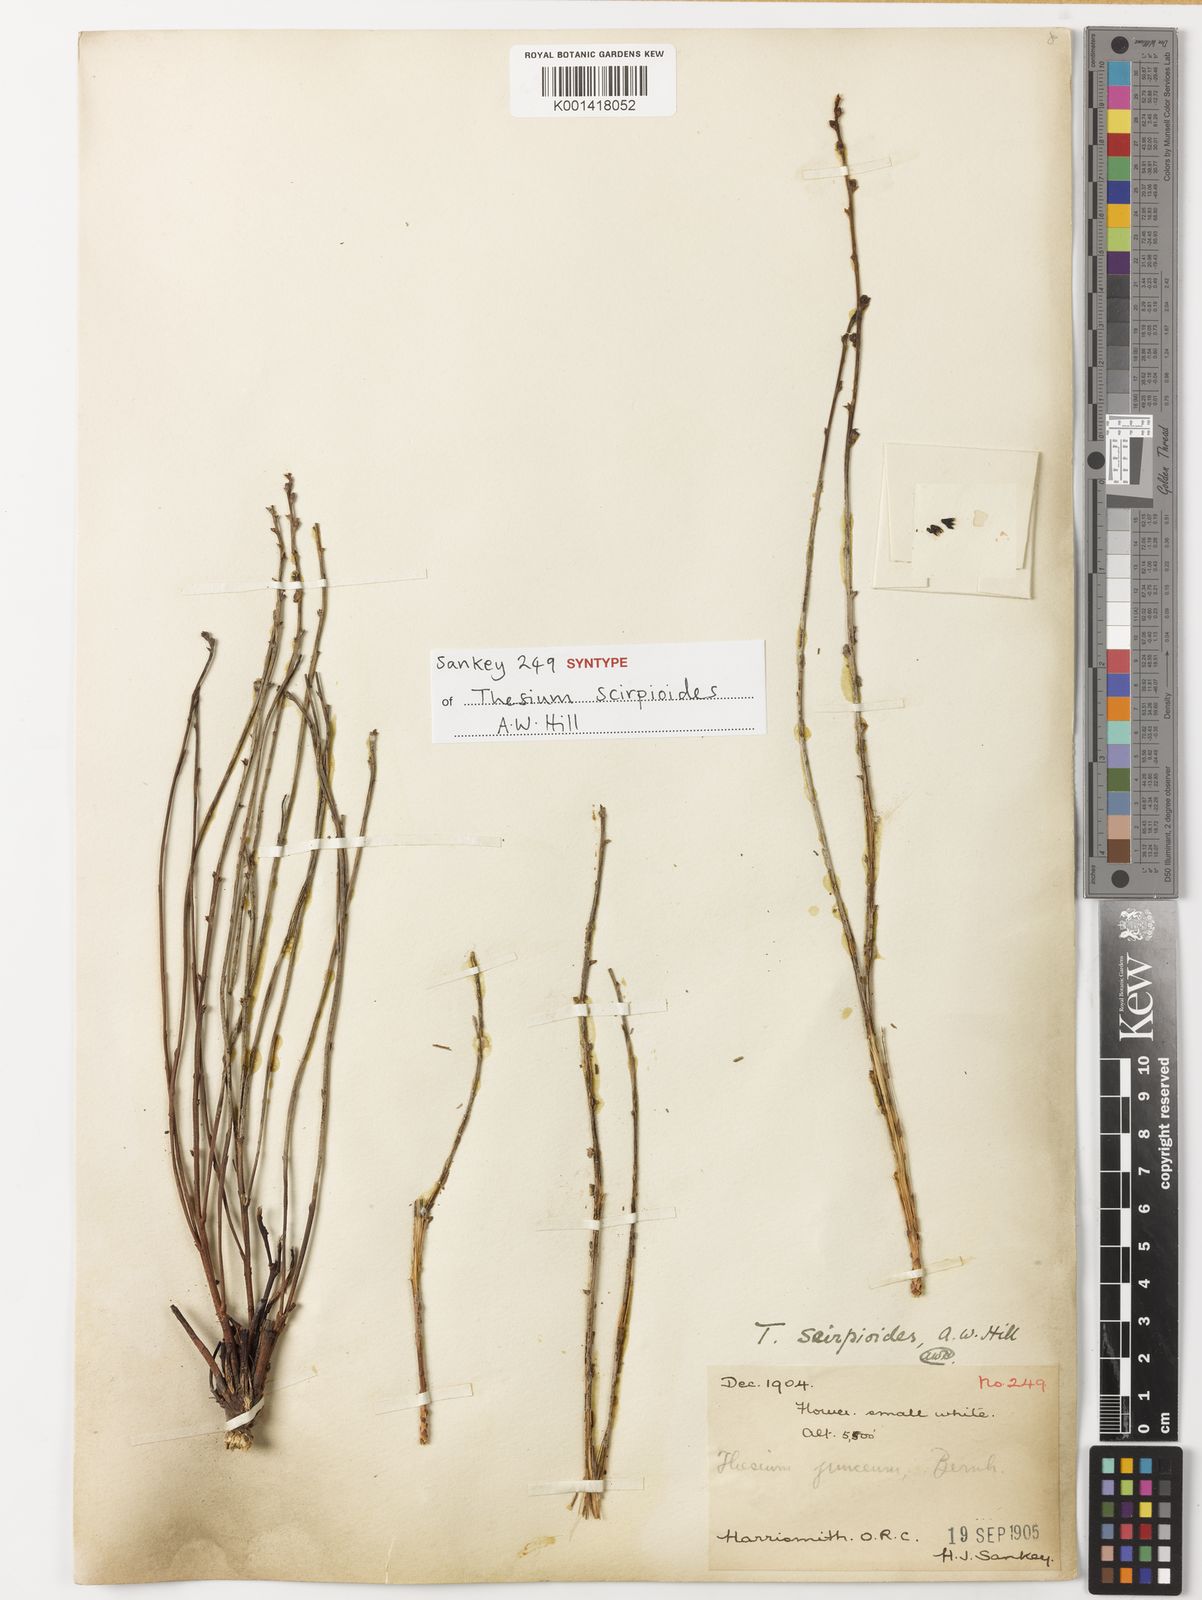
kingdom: Plantae
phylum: Tracheophyta
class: Magnoliopsida
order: Santalales
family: Thesiaceae
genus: Thesium
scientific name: Thesium
